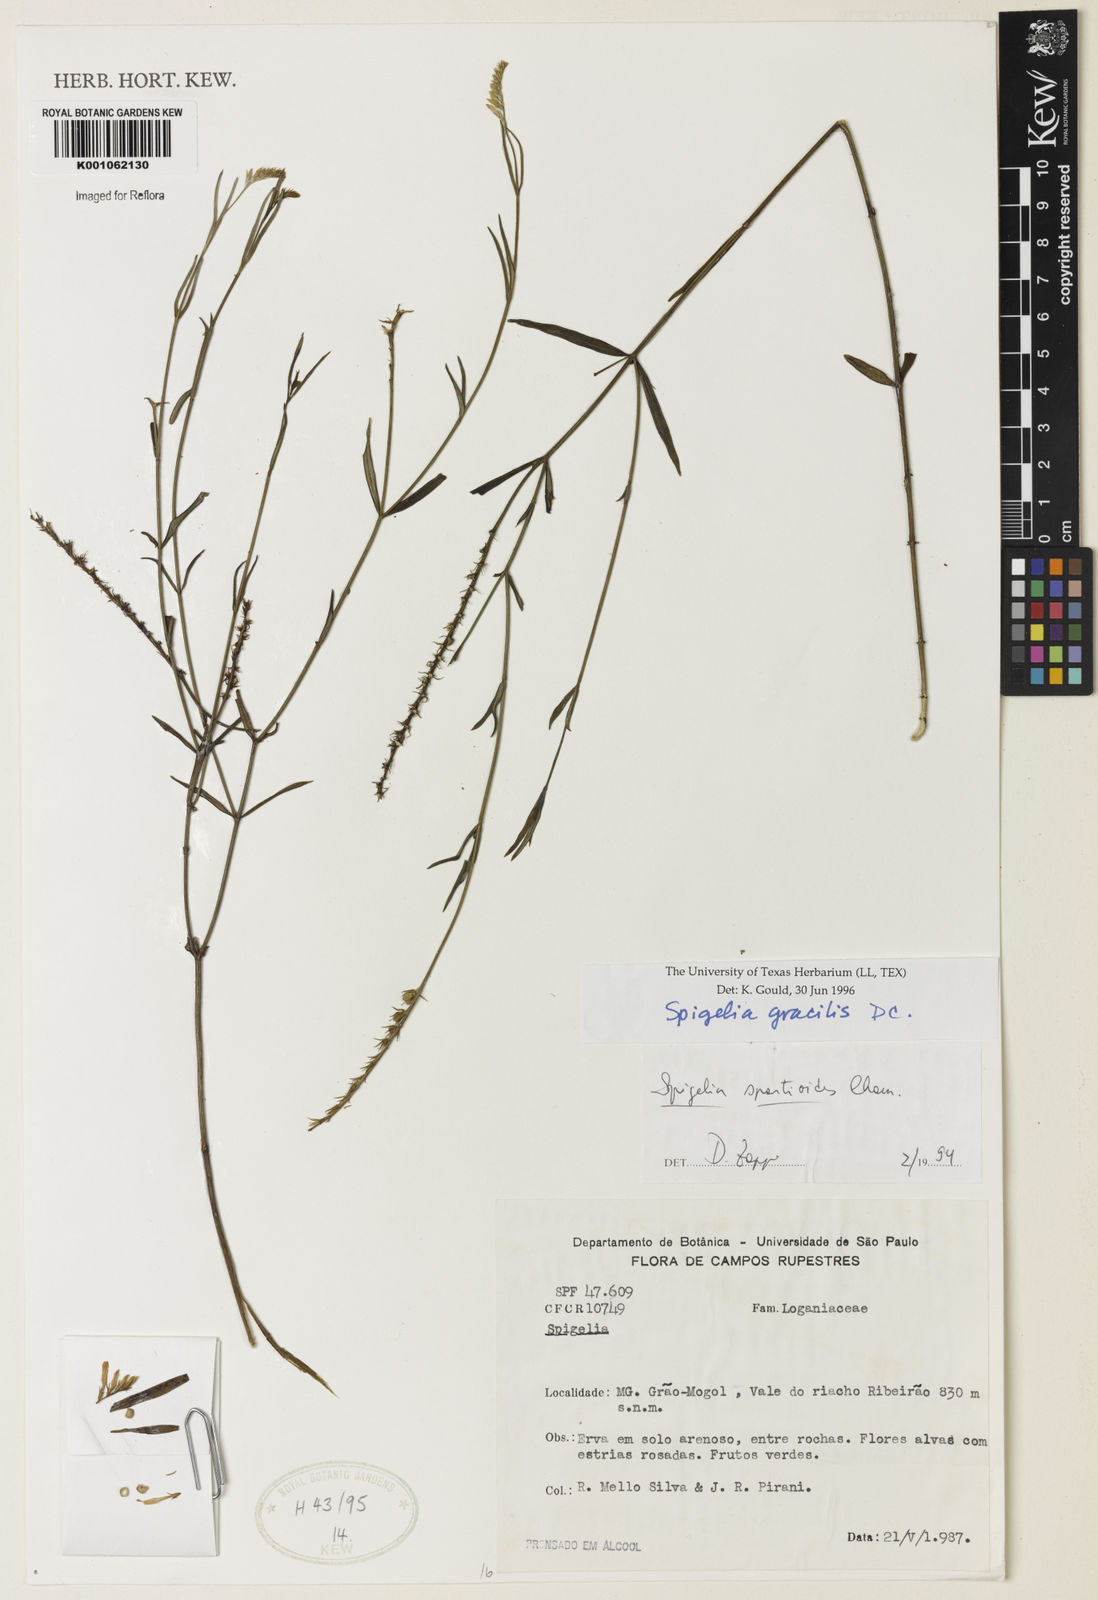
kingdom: Plantae
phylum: Tracheophyta
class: Magnoliopsida
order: Gentianales
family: Loganiaceae
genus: Spigelia
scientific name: Spigelia
